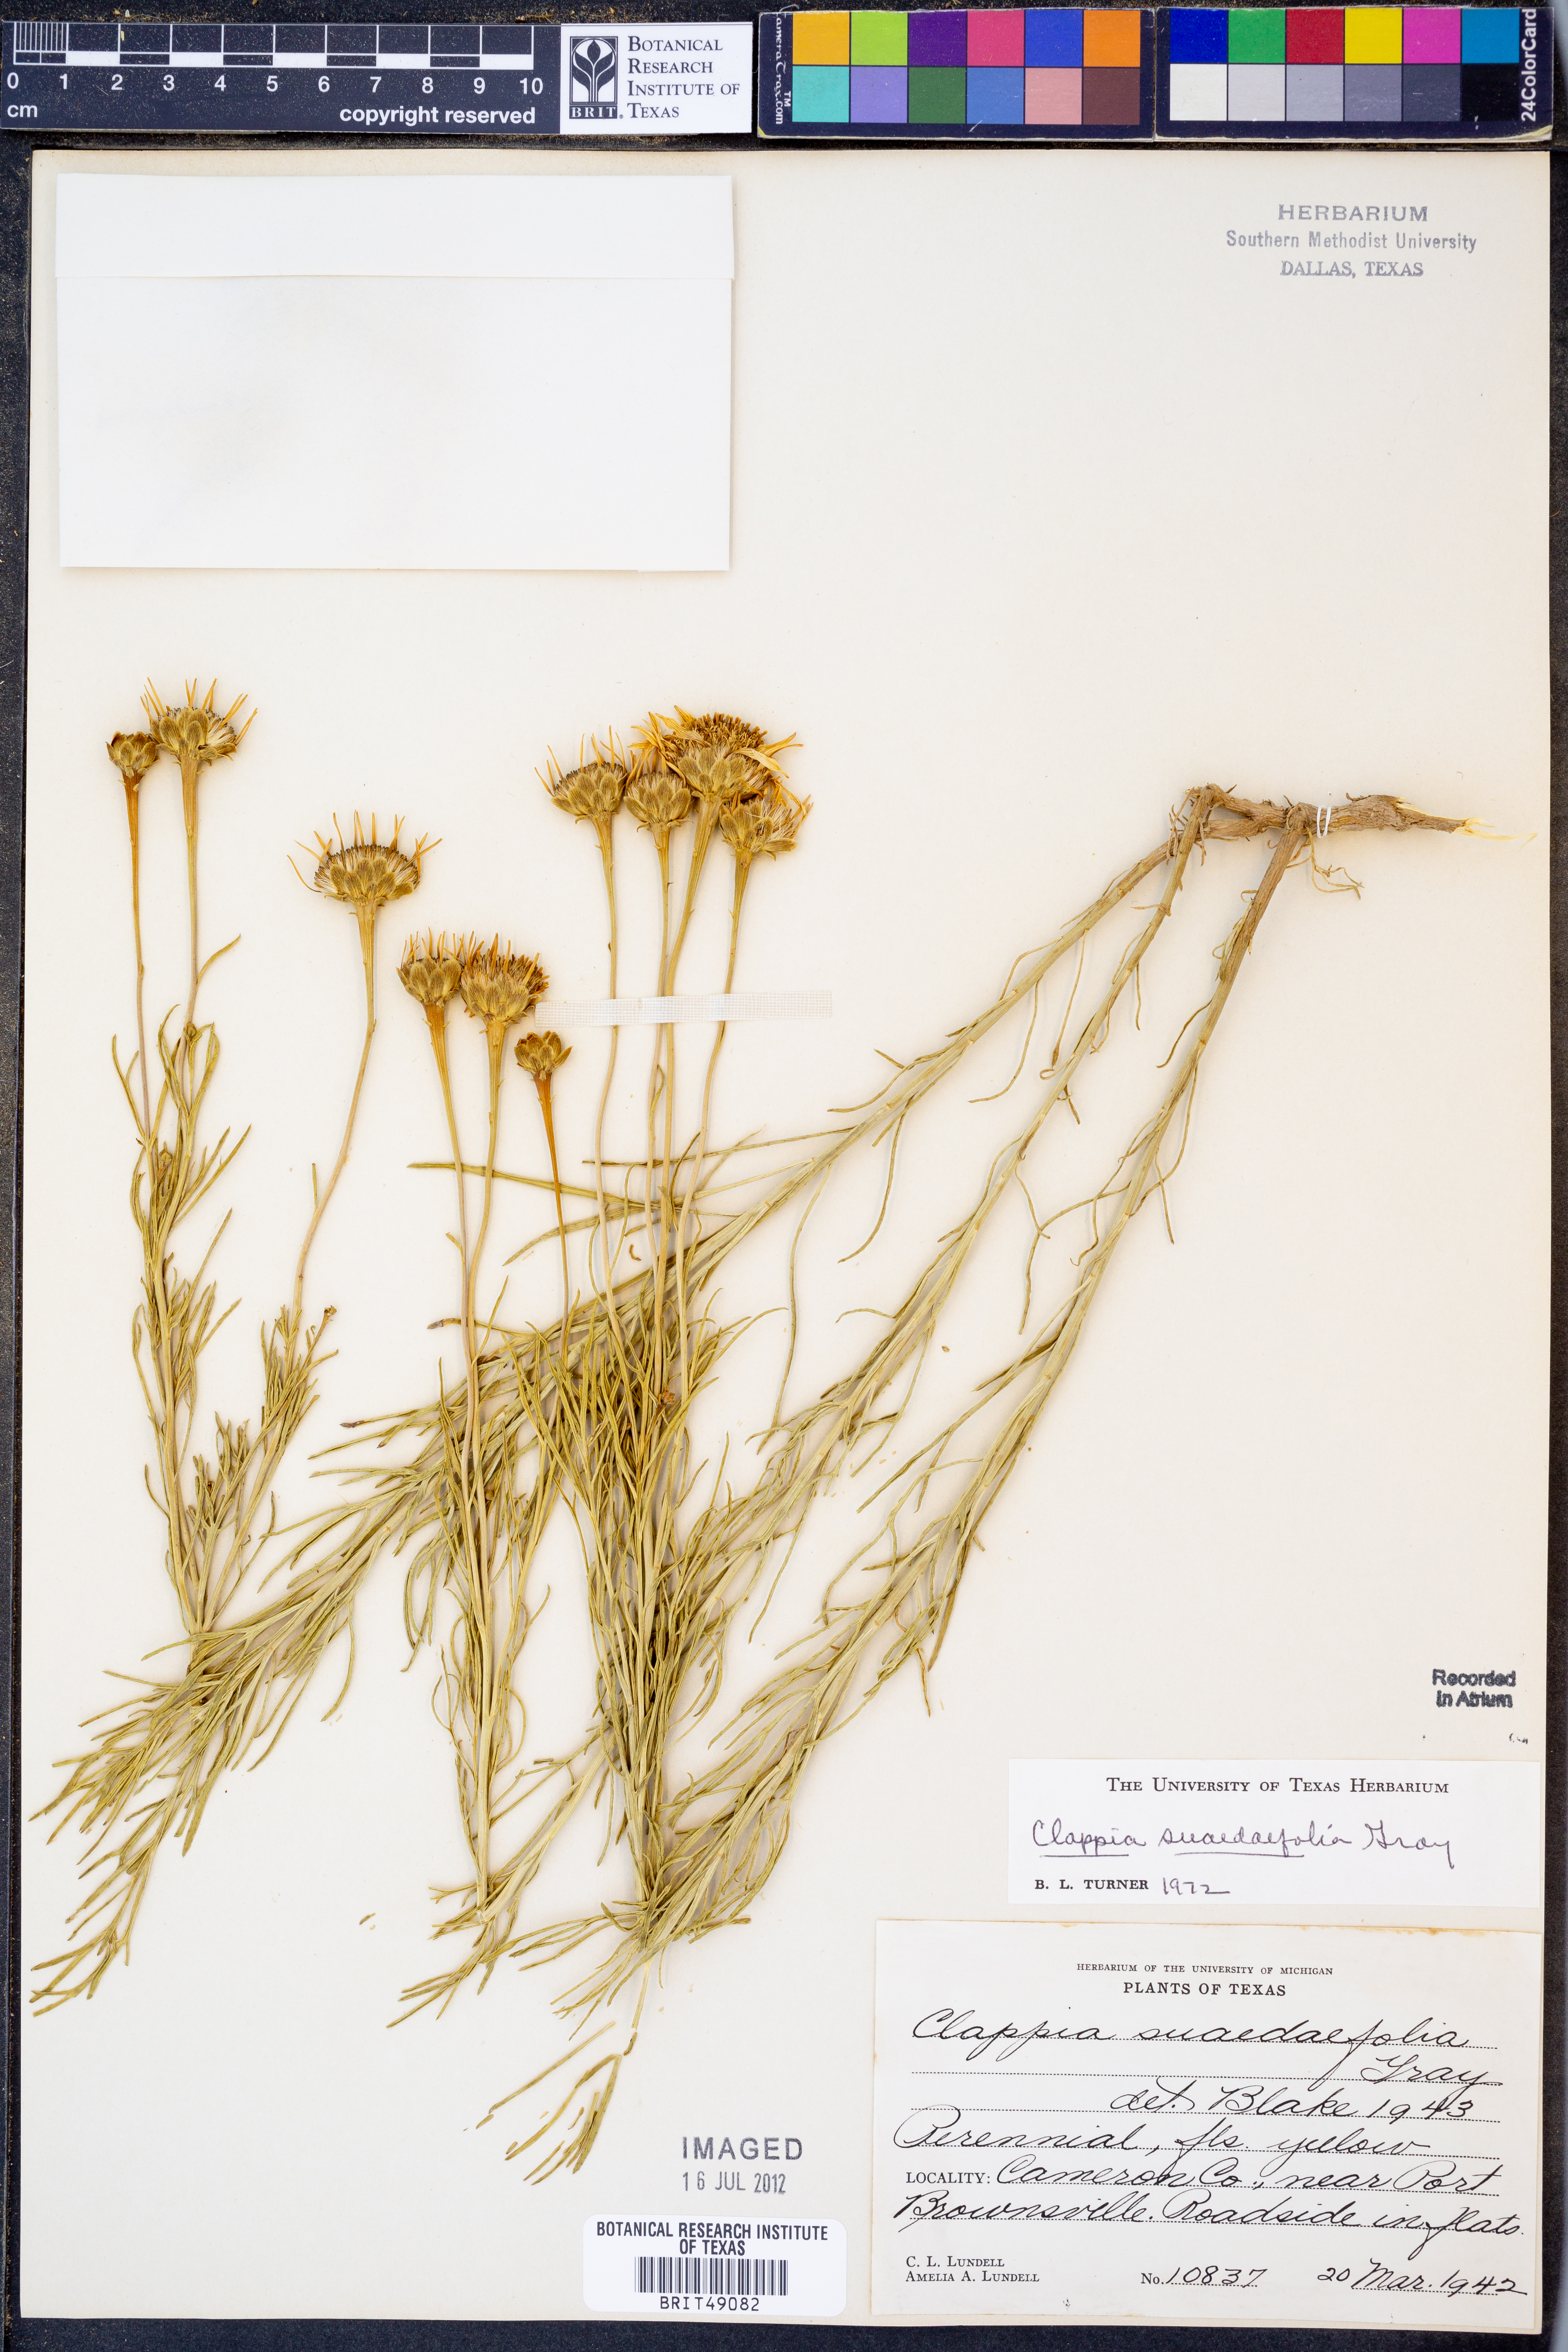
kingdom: Plantae
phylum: Tracheophyta
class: Magnoliopsida
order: Asterales
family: Asteraceae
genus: Clappia
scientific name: Clappia suaedaefolia
